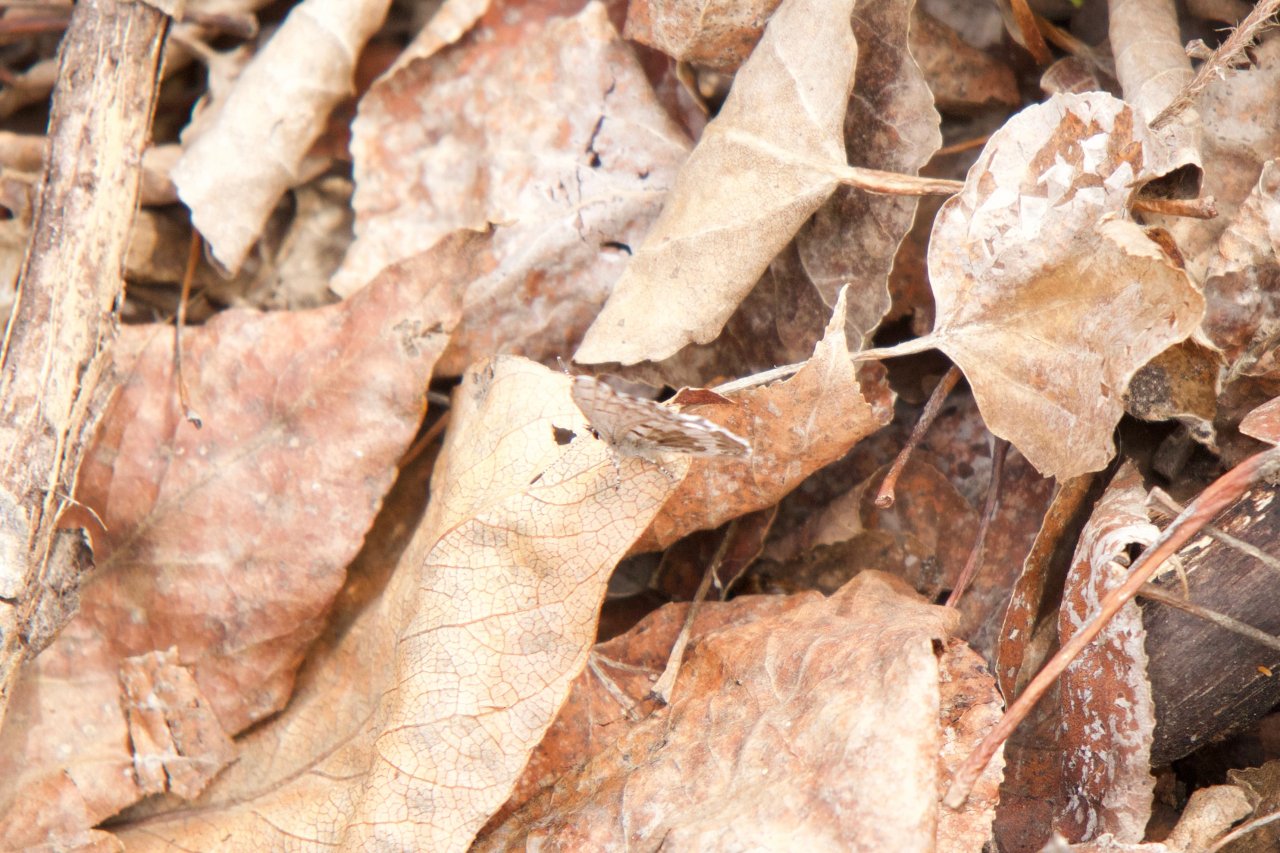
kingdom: Animalia
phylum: Arthropoda
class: Insecta
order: Lepidoptera
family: Lycaenidae
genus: Celastrina
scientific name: Celastrina lucia
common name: Northern Spring Azure
